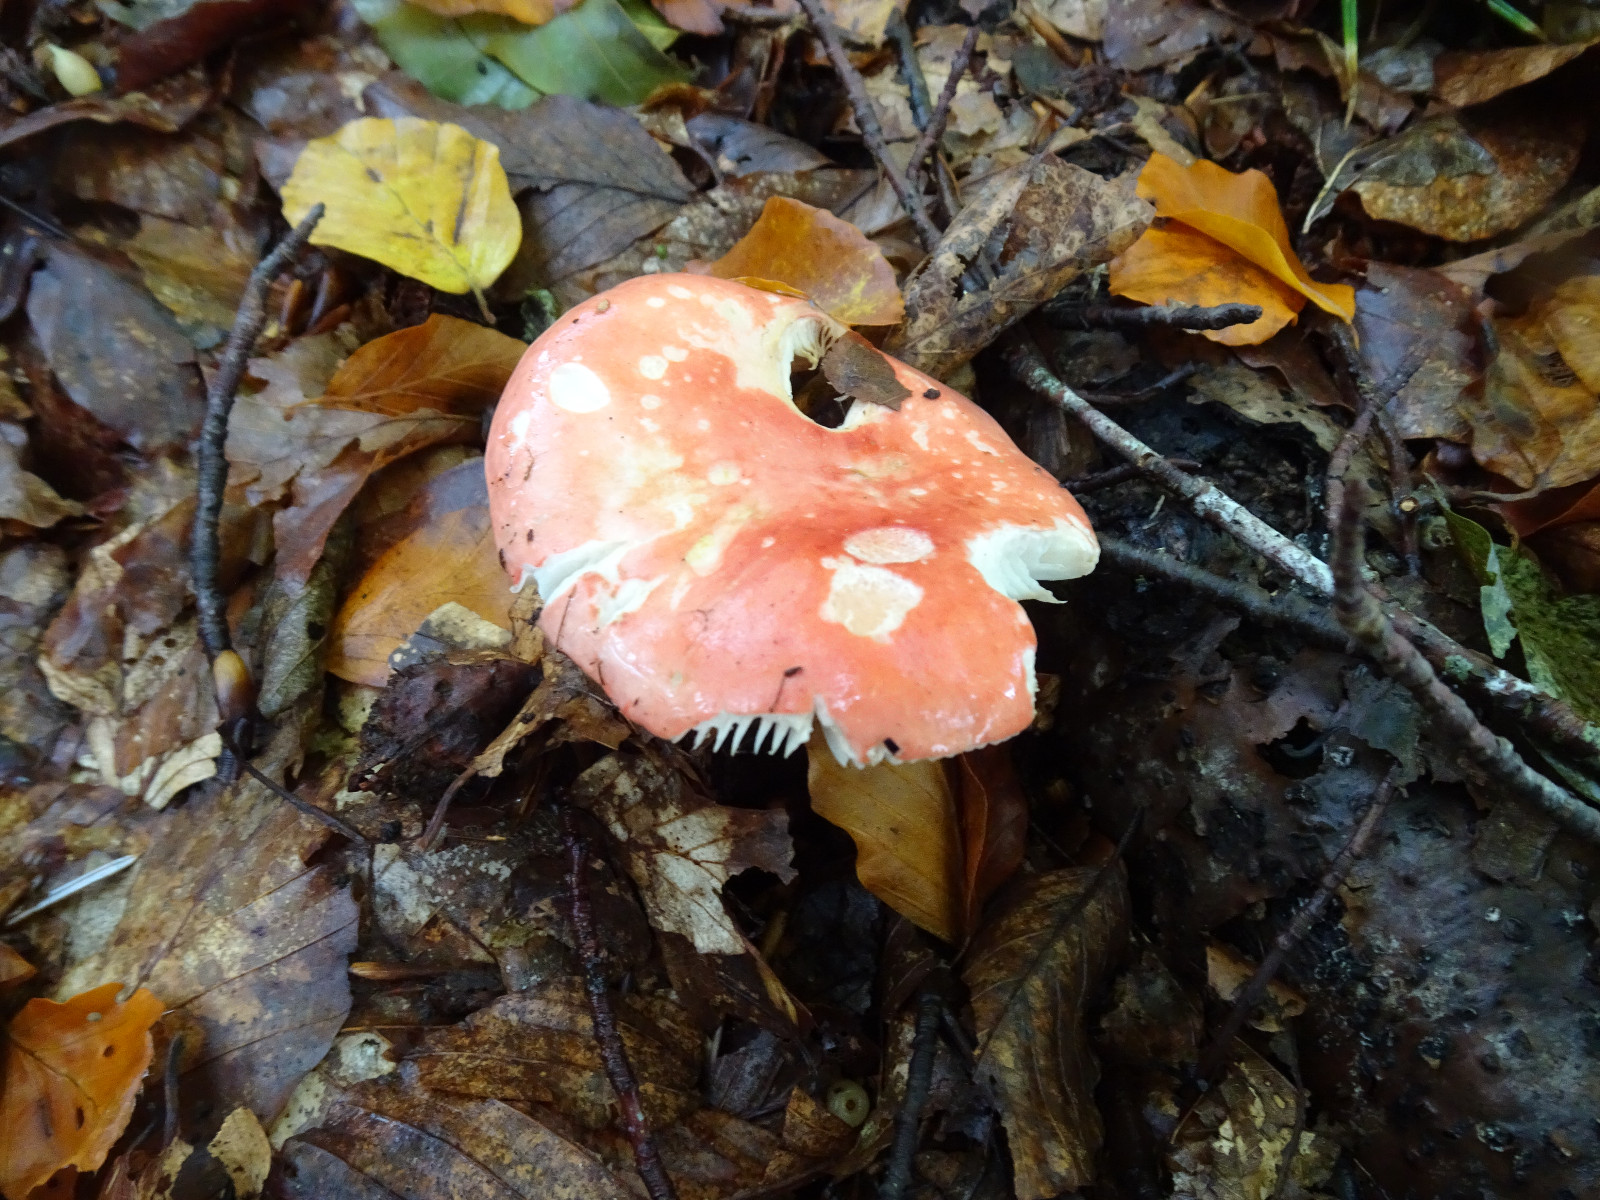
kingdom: Fungi
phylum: Basidiomycota
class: Agaricomycetes
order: Agaricales
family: Amanitaceae
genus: Amanita
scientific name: Amanita muscaria
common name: rød fluesvamp
